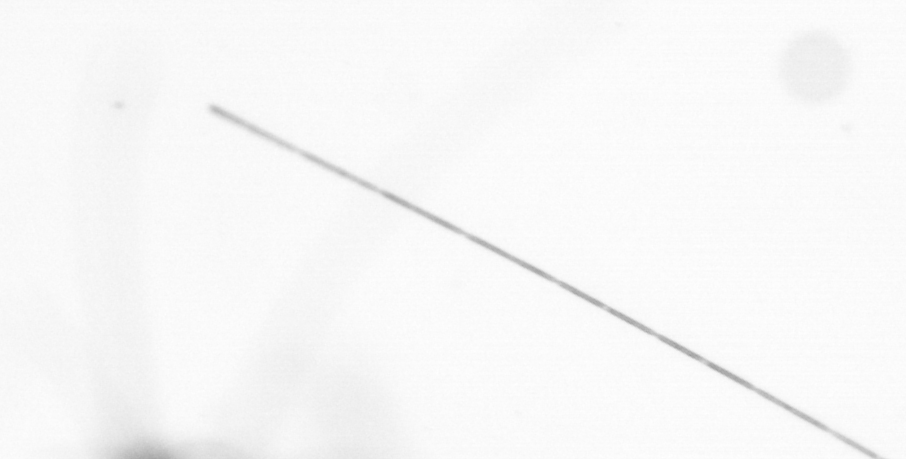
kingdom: Chromista
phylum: Ochrophyta
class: Bacillariophyceae
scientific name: Bacillariophyceae
